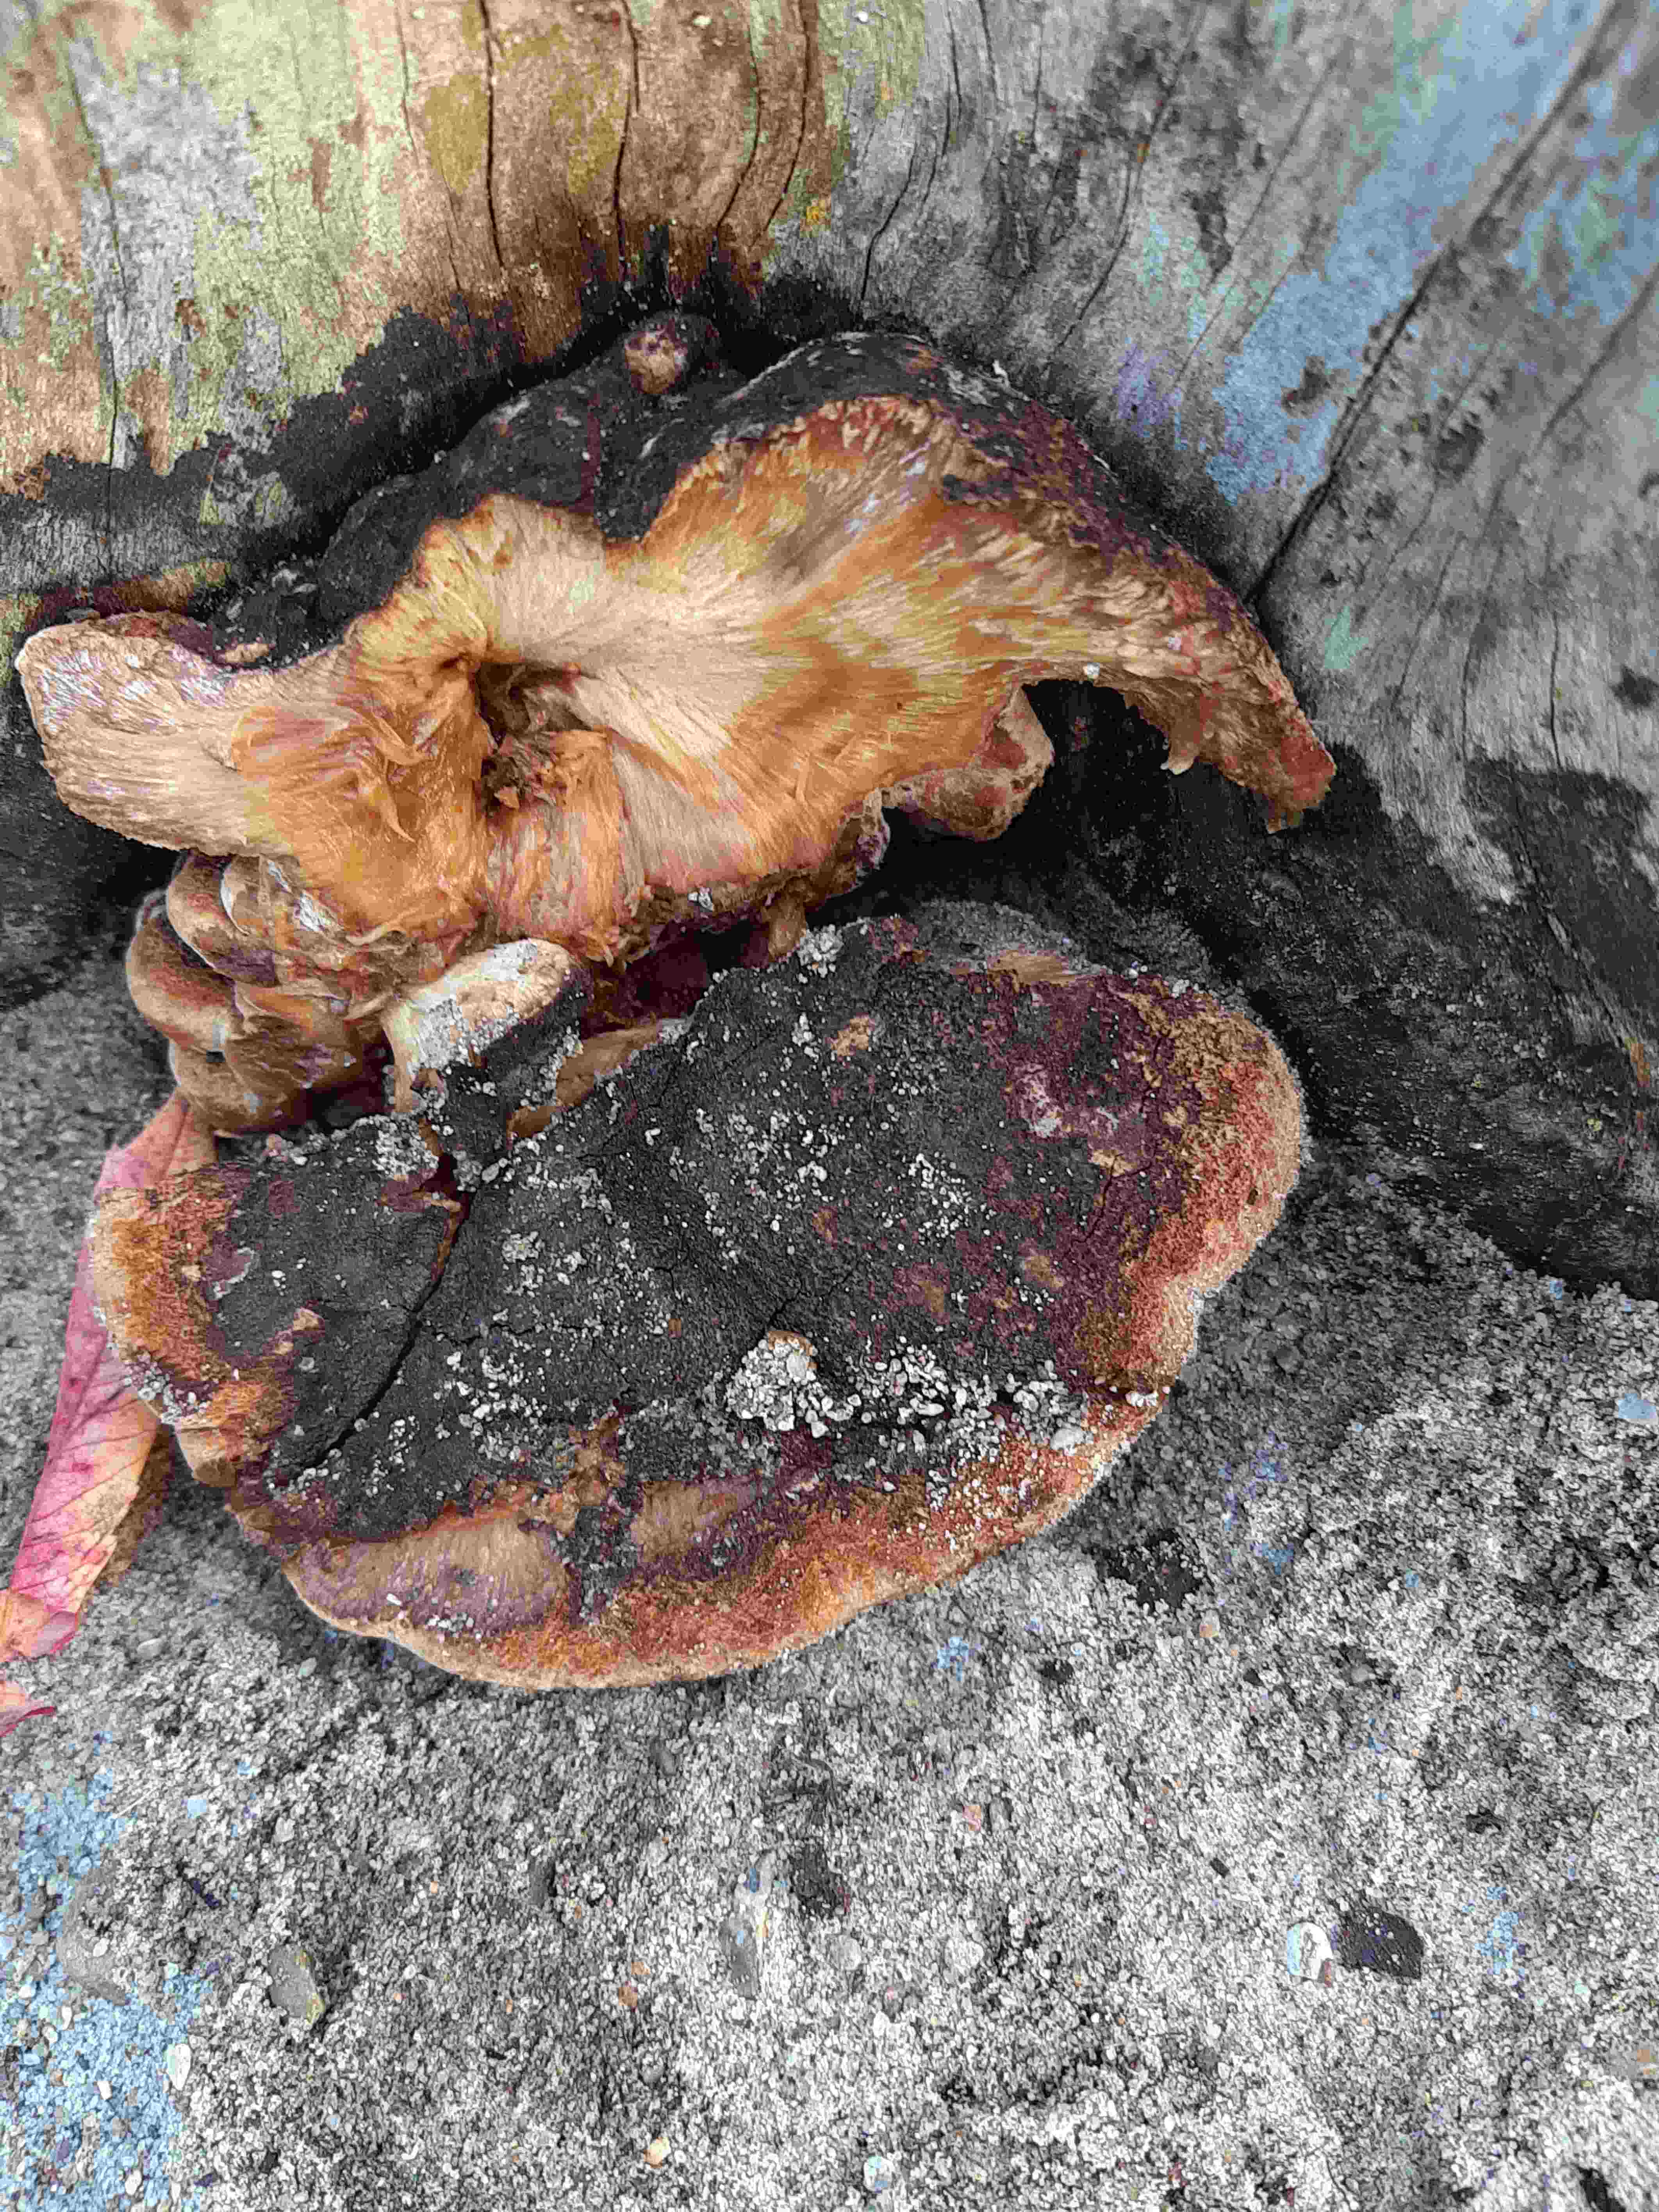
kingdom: Fungi
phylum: Basidiomycota
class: Agaricomycetes
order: Polyporales
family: Ischnodermataceae
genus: Ischnoderma
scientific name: Ischnoderma benzoinum
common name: gran-tjæreporesvamp
